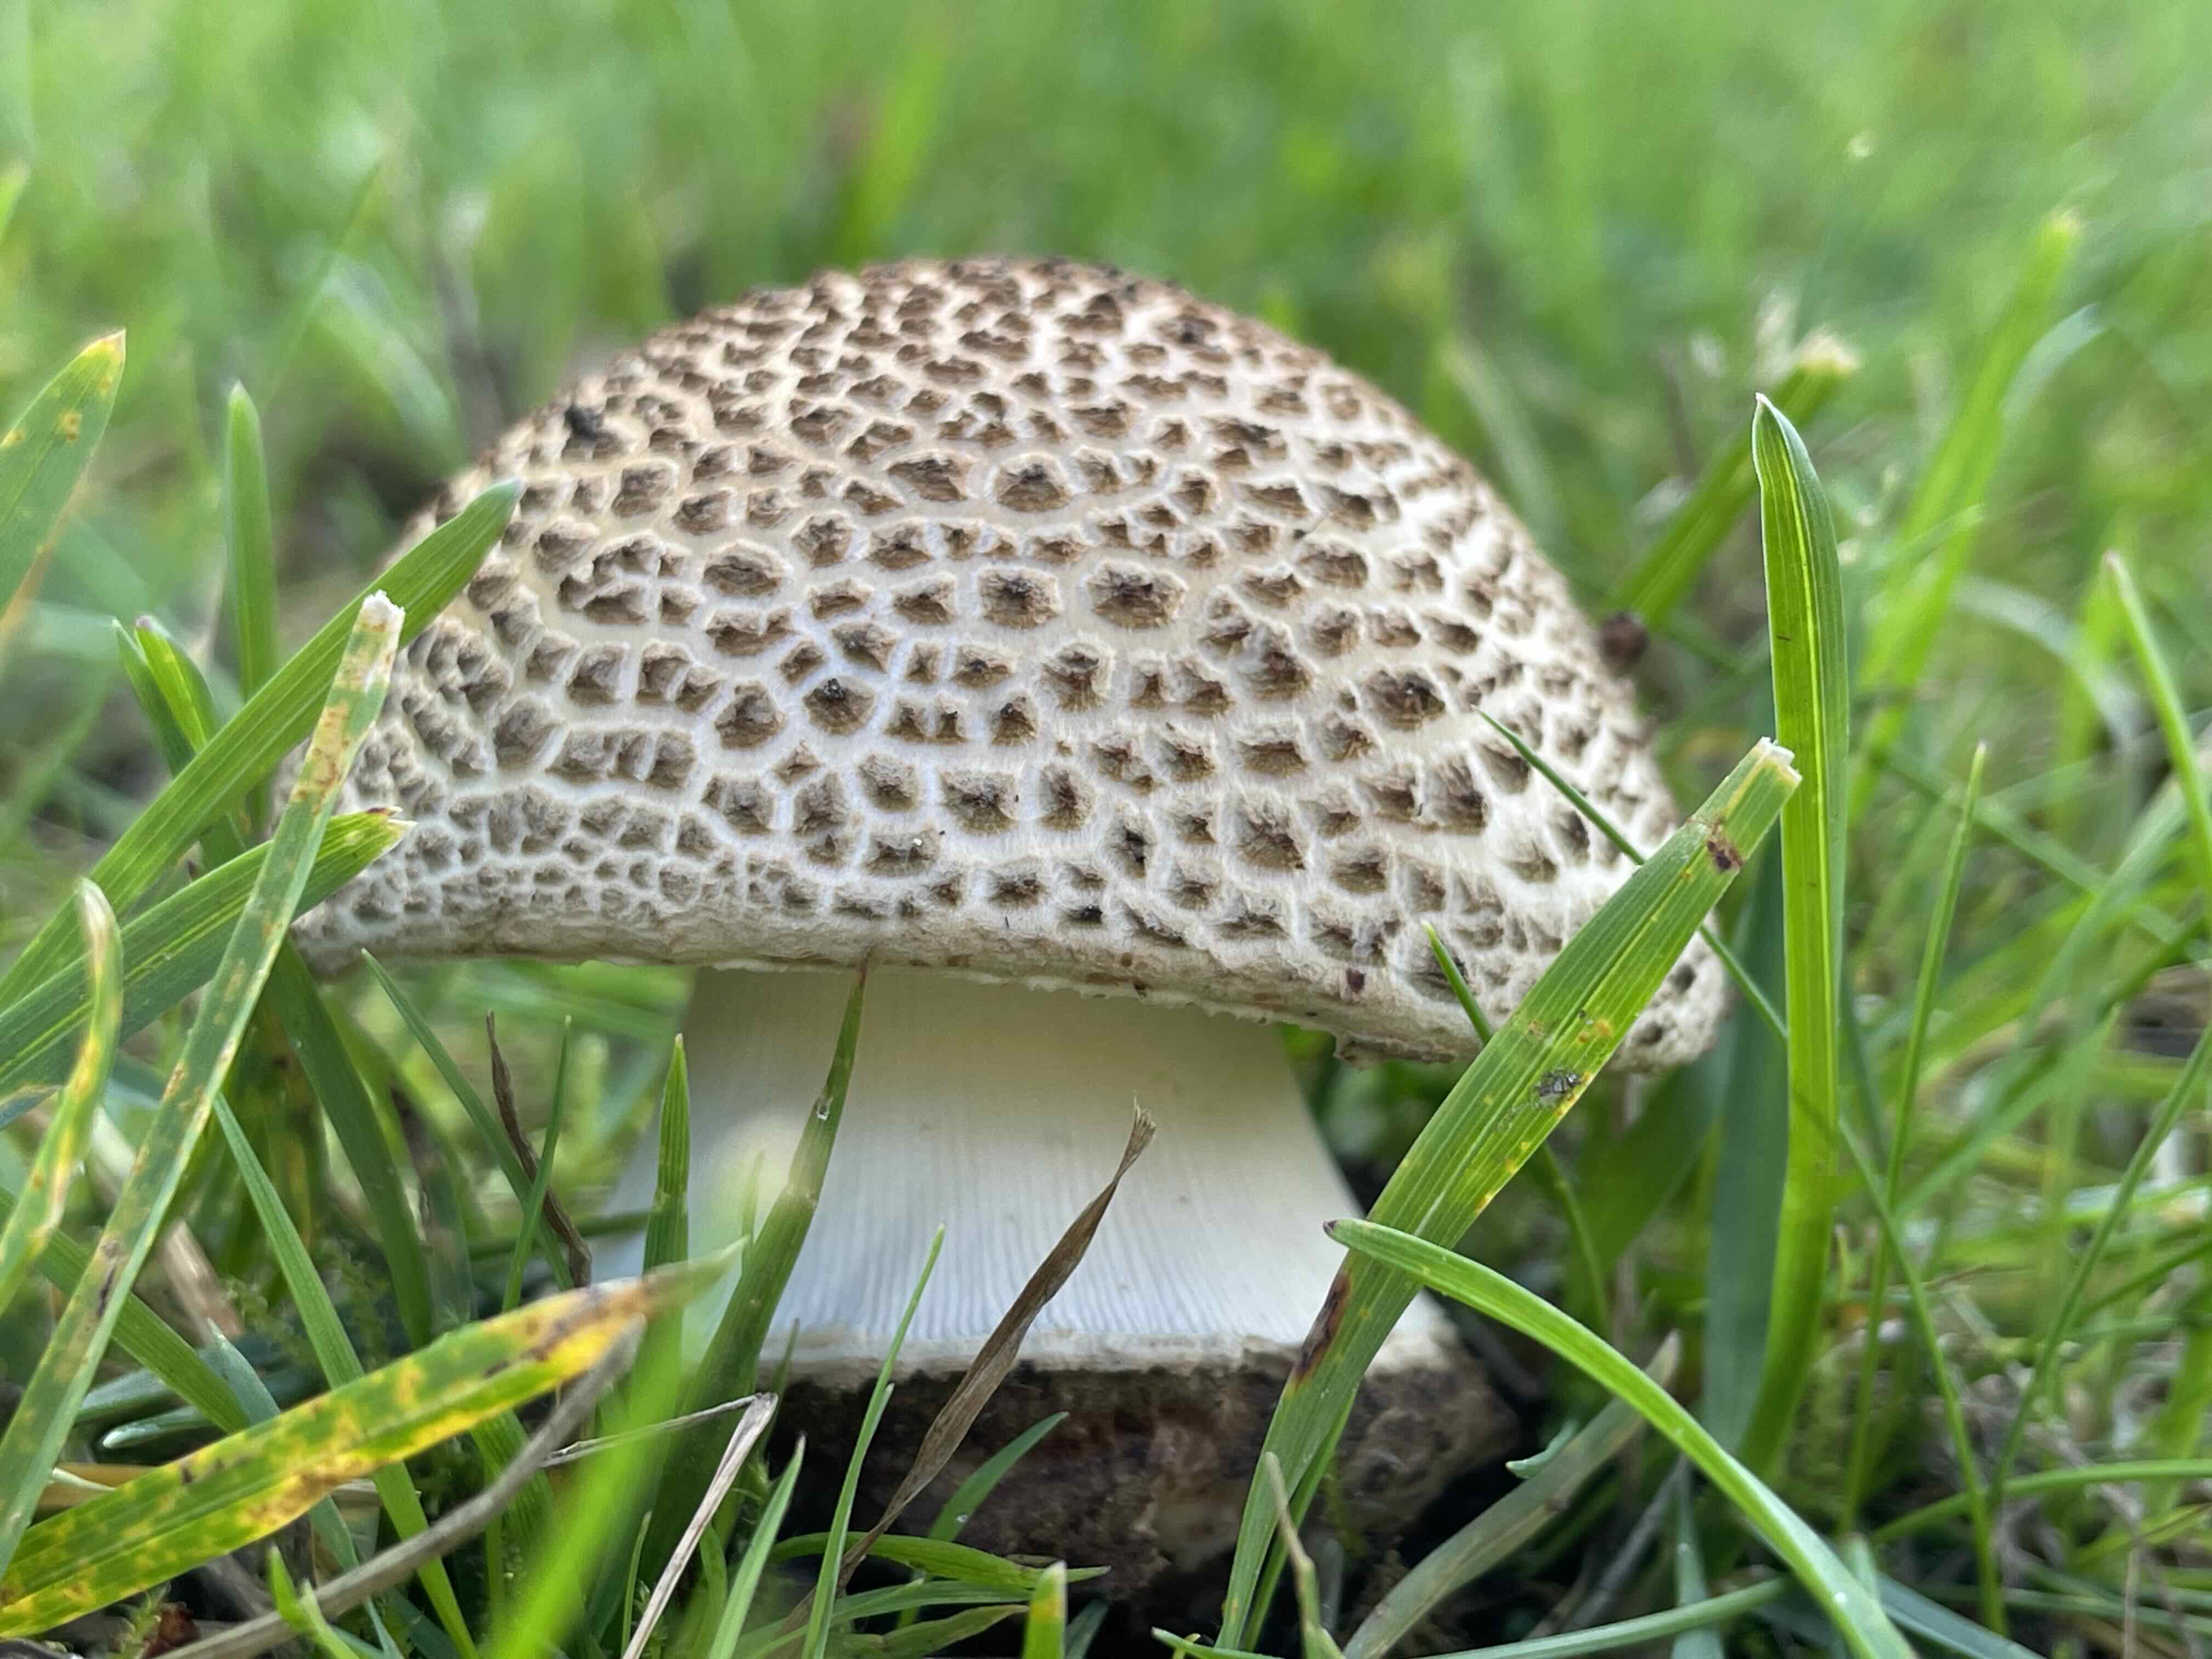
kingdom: Fungi
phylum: Basidiomycota
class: Agaricomycetes
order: Agaricales
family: Amanitaceae
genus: Amanita
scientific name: Amanita rubescens
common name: rødmende fluesvamp
